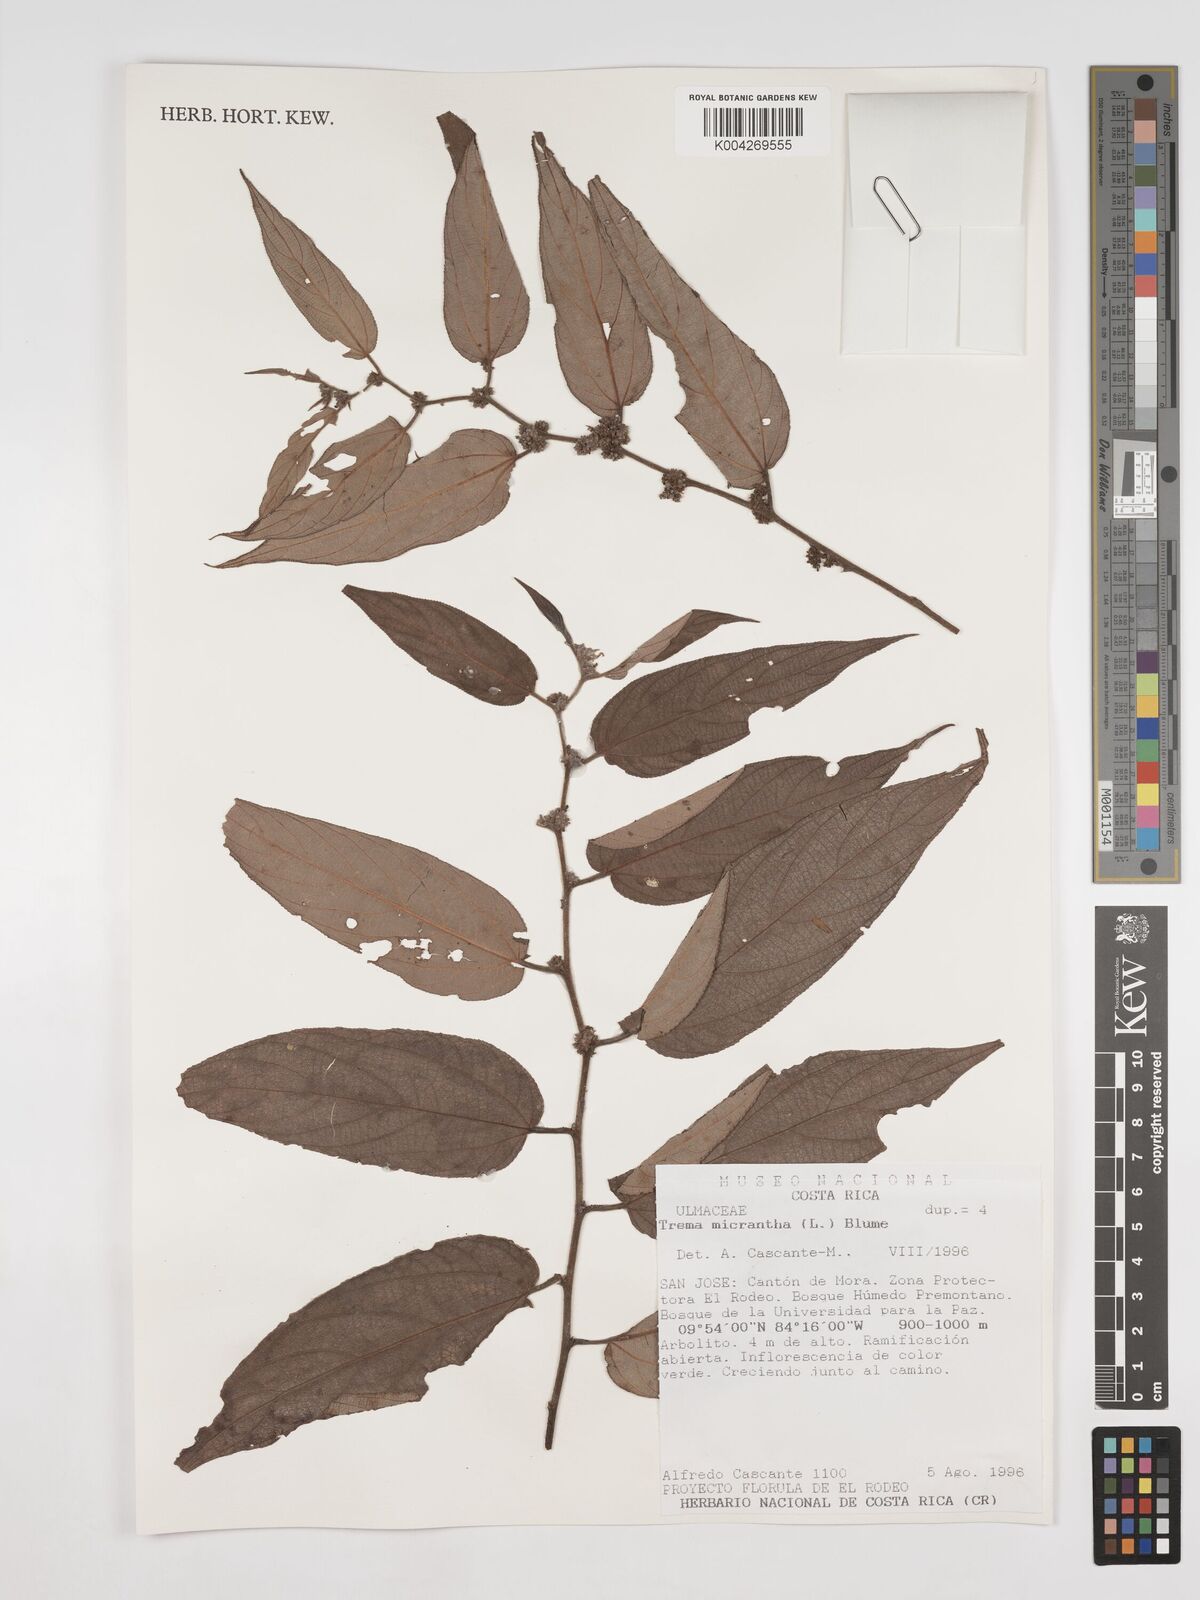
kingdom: Plantae
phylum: Tracheophyta
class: Magnoliopsida
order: Rosales
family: Cannabaceae
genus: Trema
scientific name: Trema micranthum
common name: Jamaican nettletree
